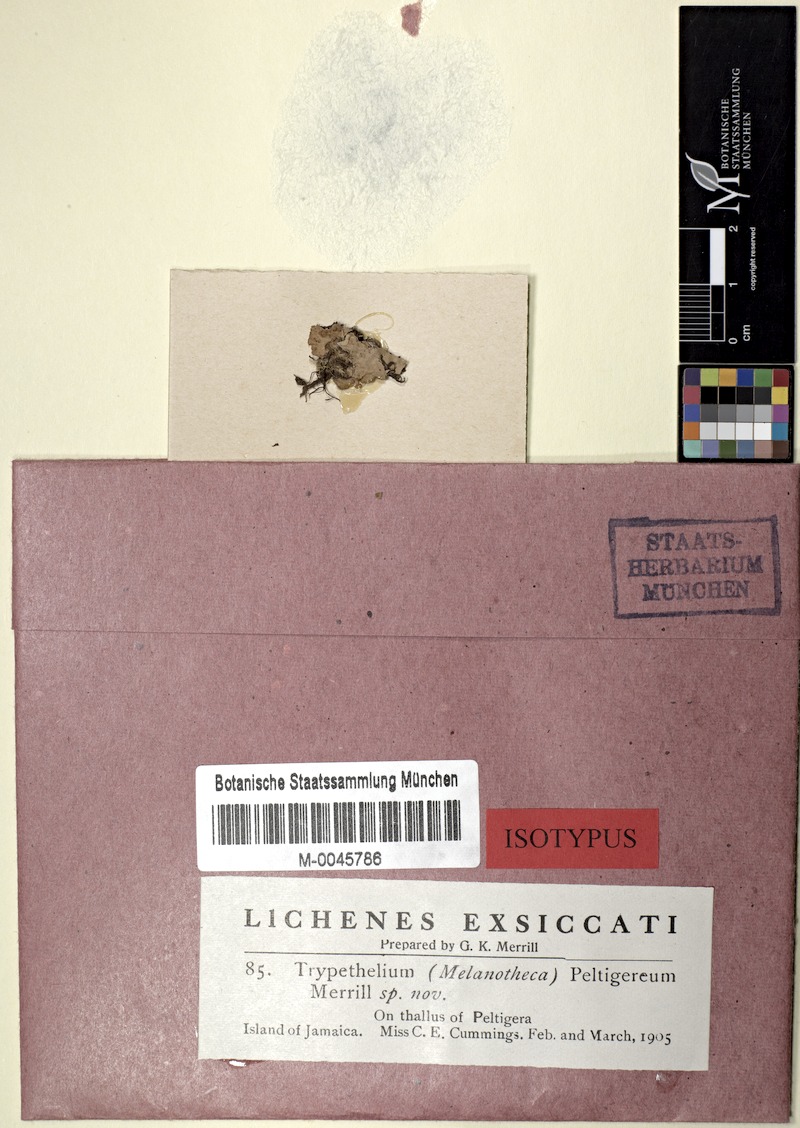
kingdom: Fungi
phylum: Ascomycota
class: Lecanoromycetes
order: Peltigerales
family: Peltigeraceae
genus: Peltigera
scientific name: Peltigera
